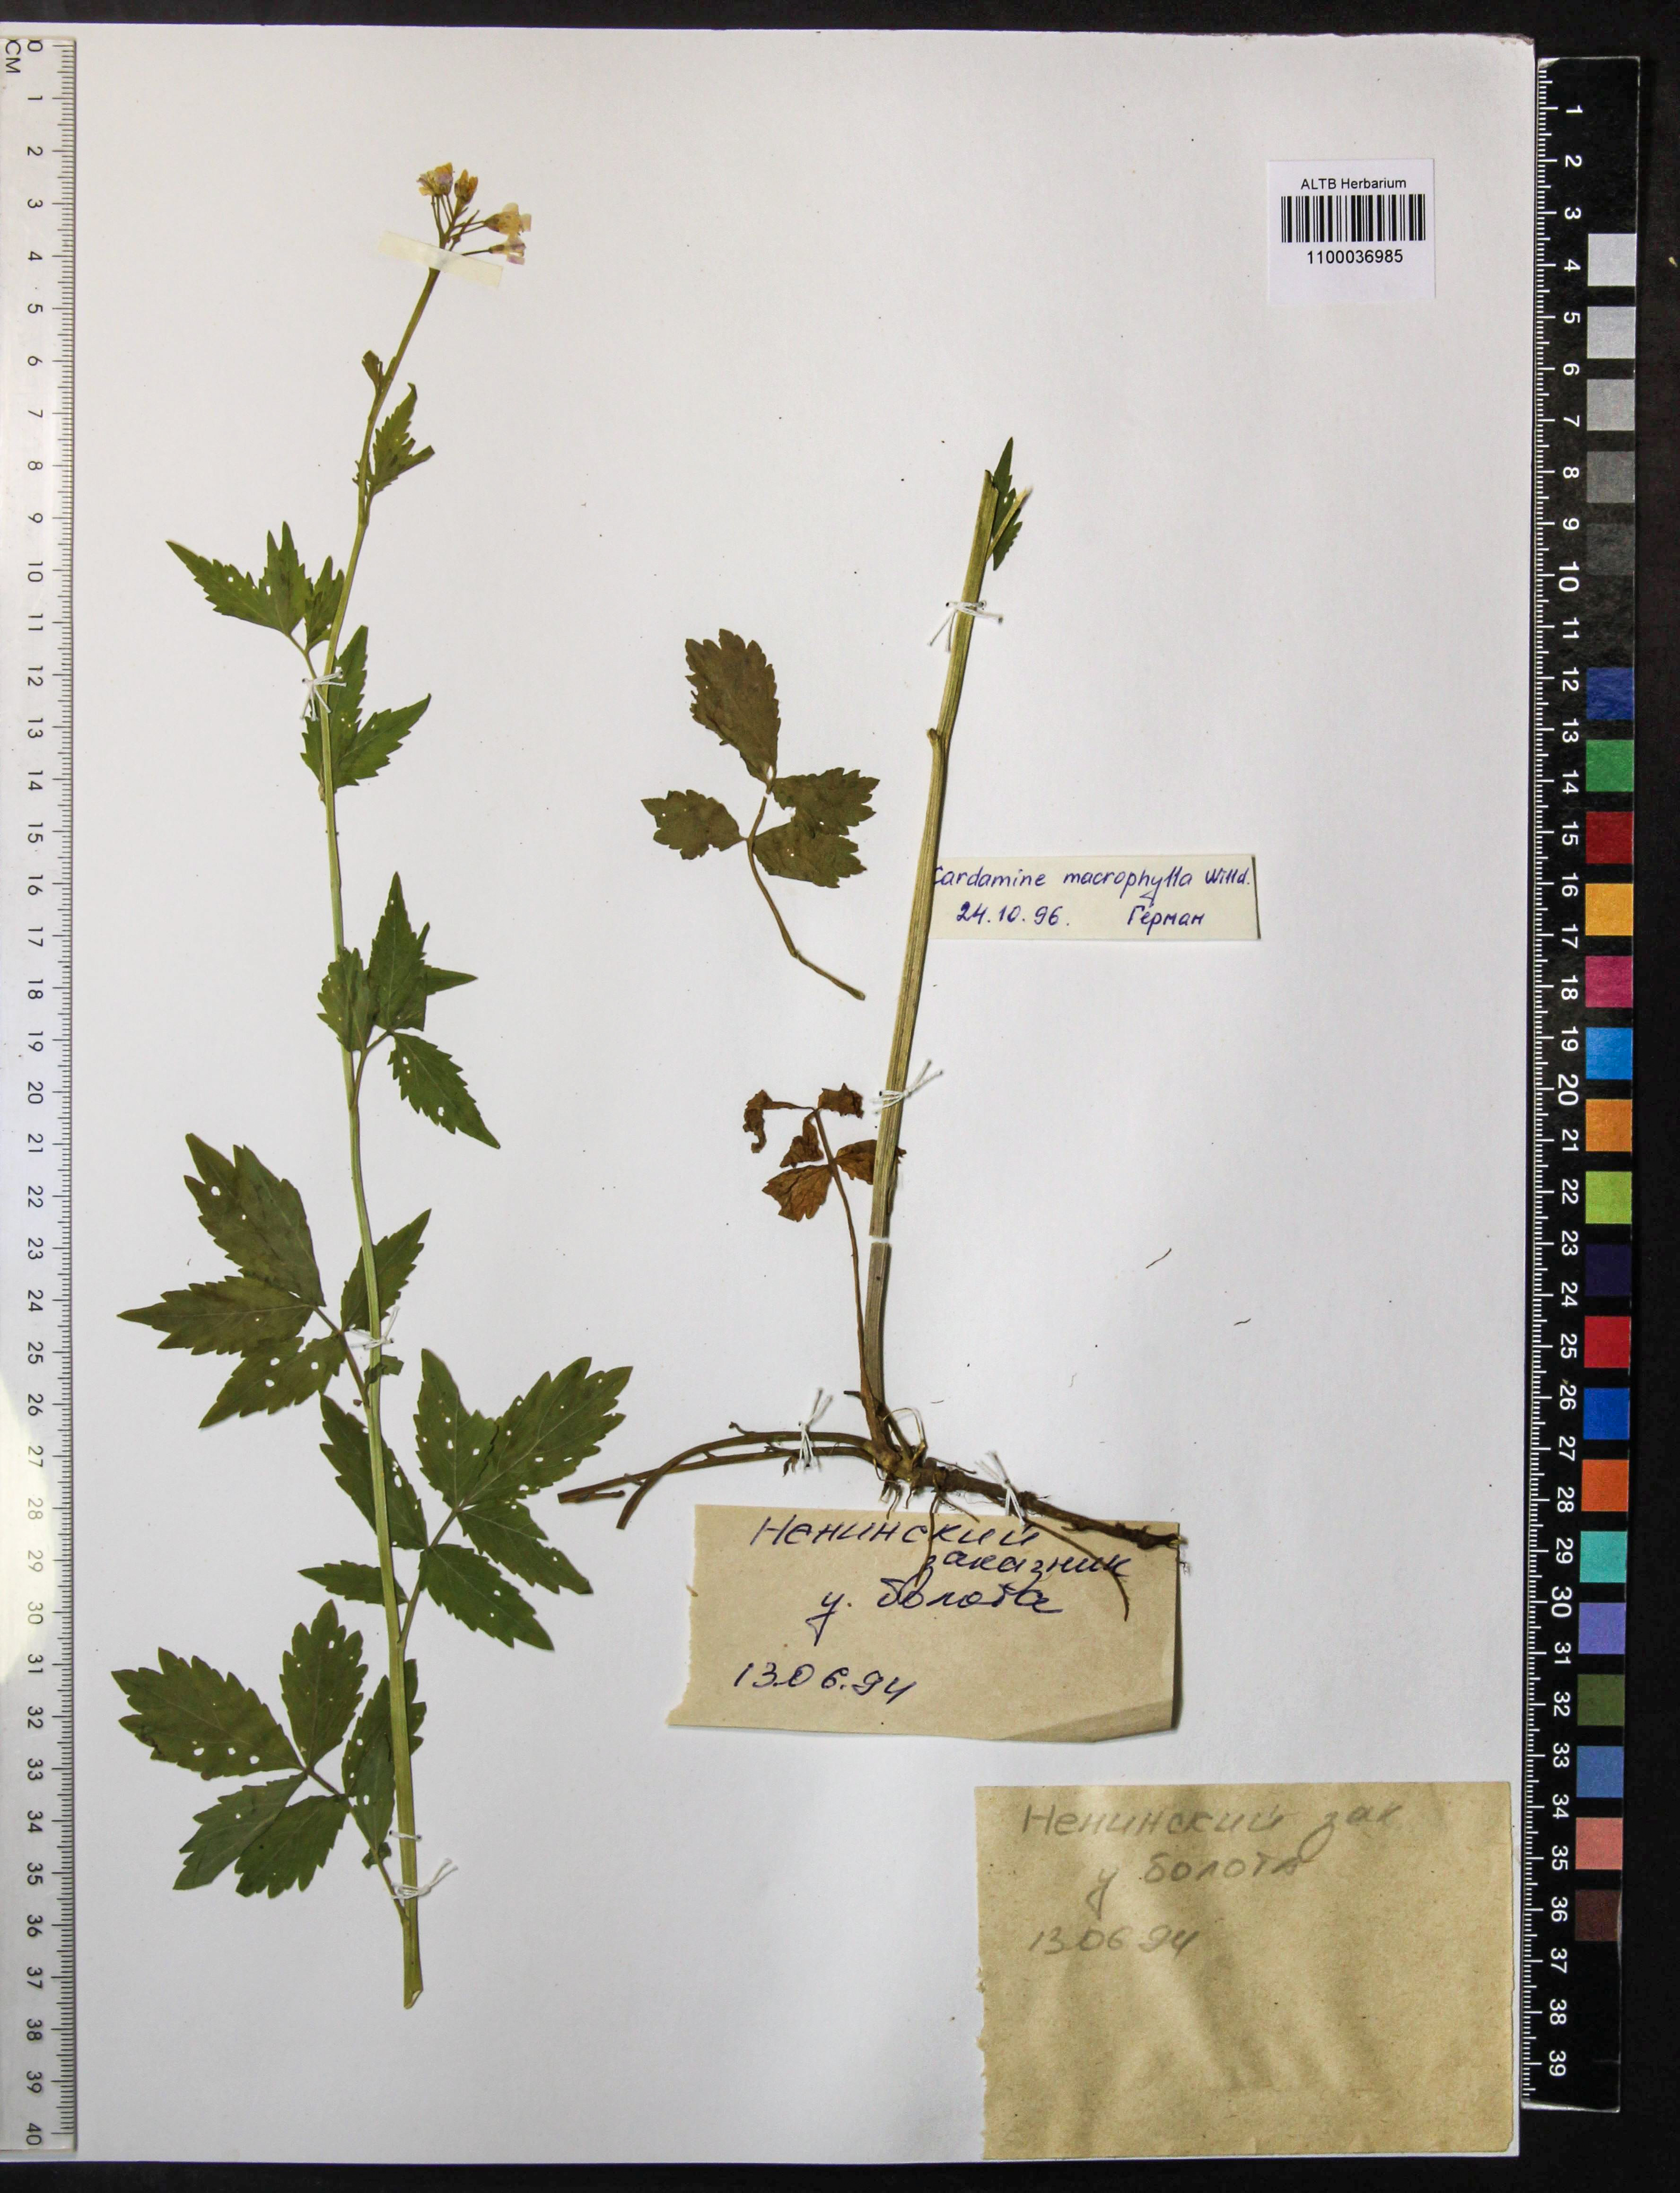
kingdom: Plantae
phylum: Tracheophyta
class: Magnoliopsida
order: Brassicales
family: Brassicaceae
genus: Cardamine
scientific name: Cardamine macrophylla
